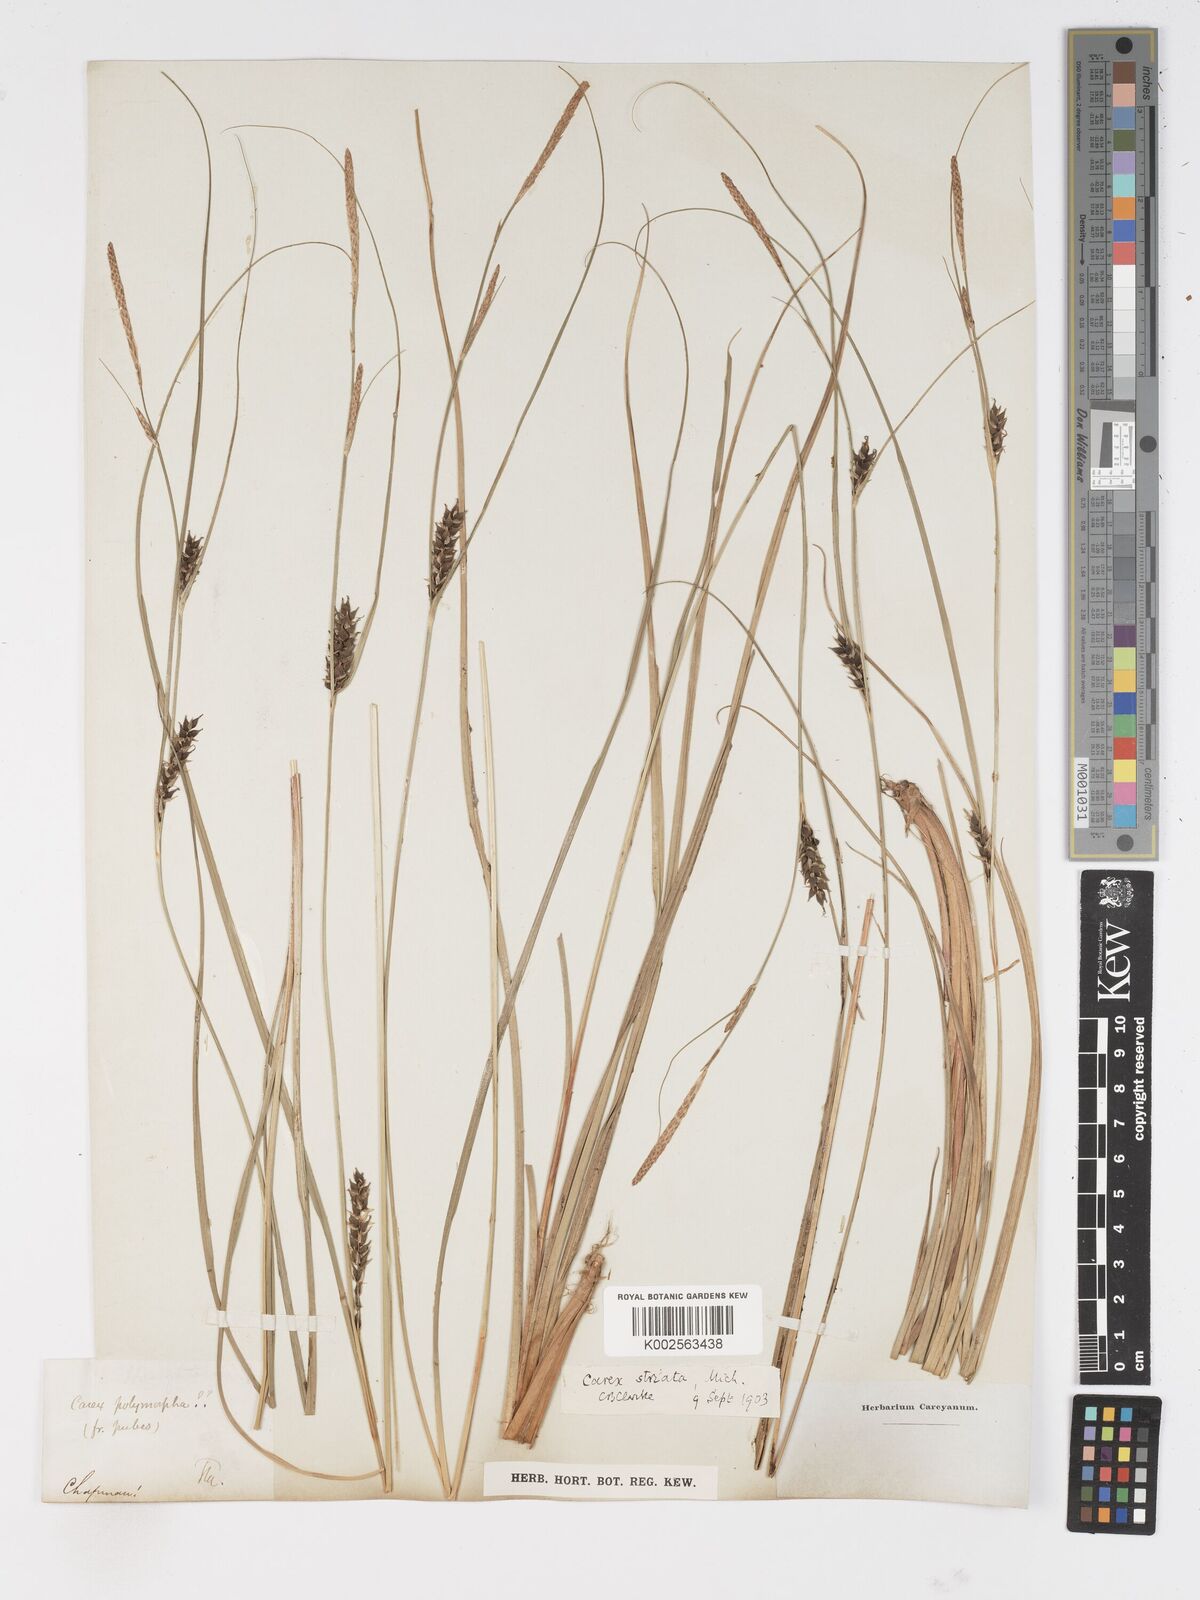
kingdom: Plantae
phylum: Tracheophyta
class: Liliopsida
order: Poales
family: Cyperaceae
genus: Carex
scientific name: Carex trichocarpa
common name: Hairy-fruited lake sedge
